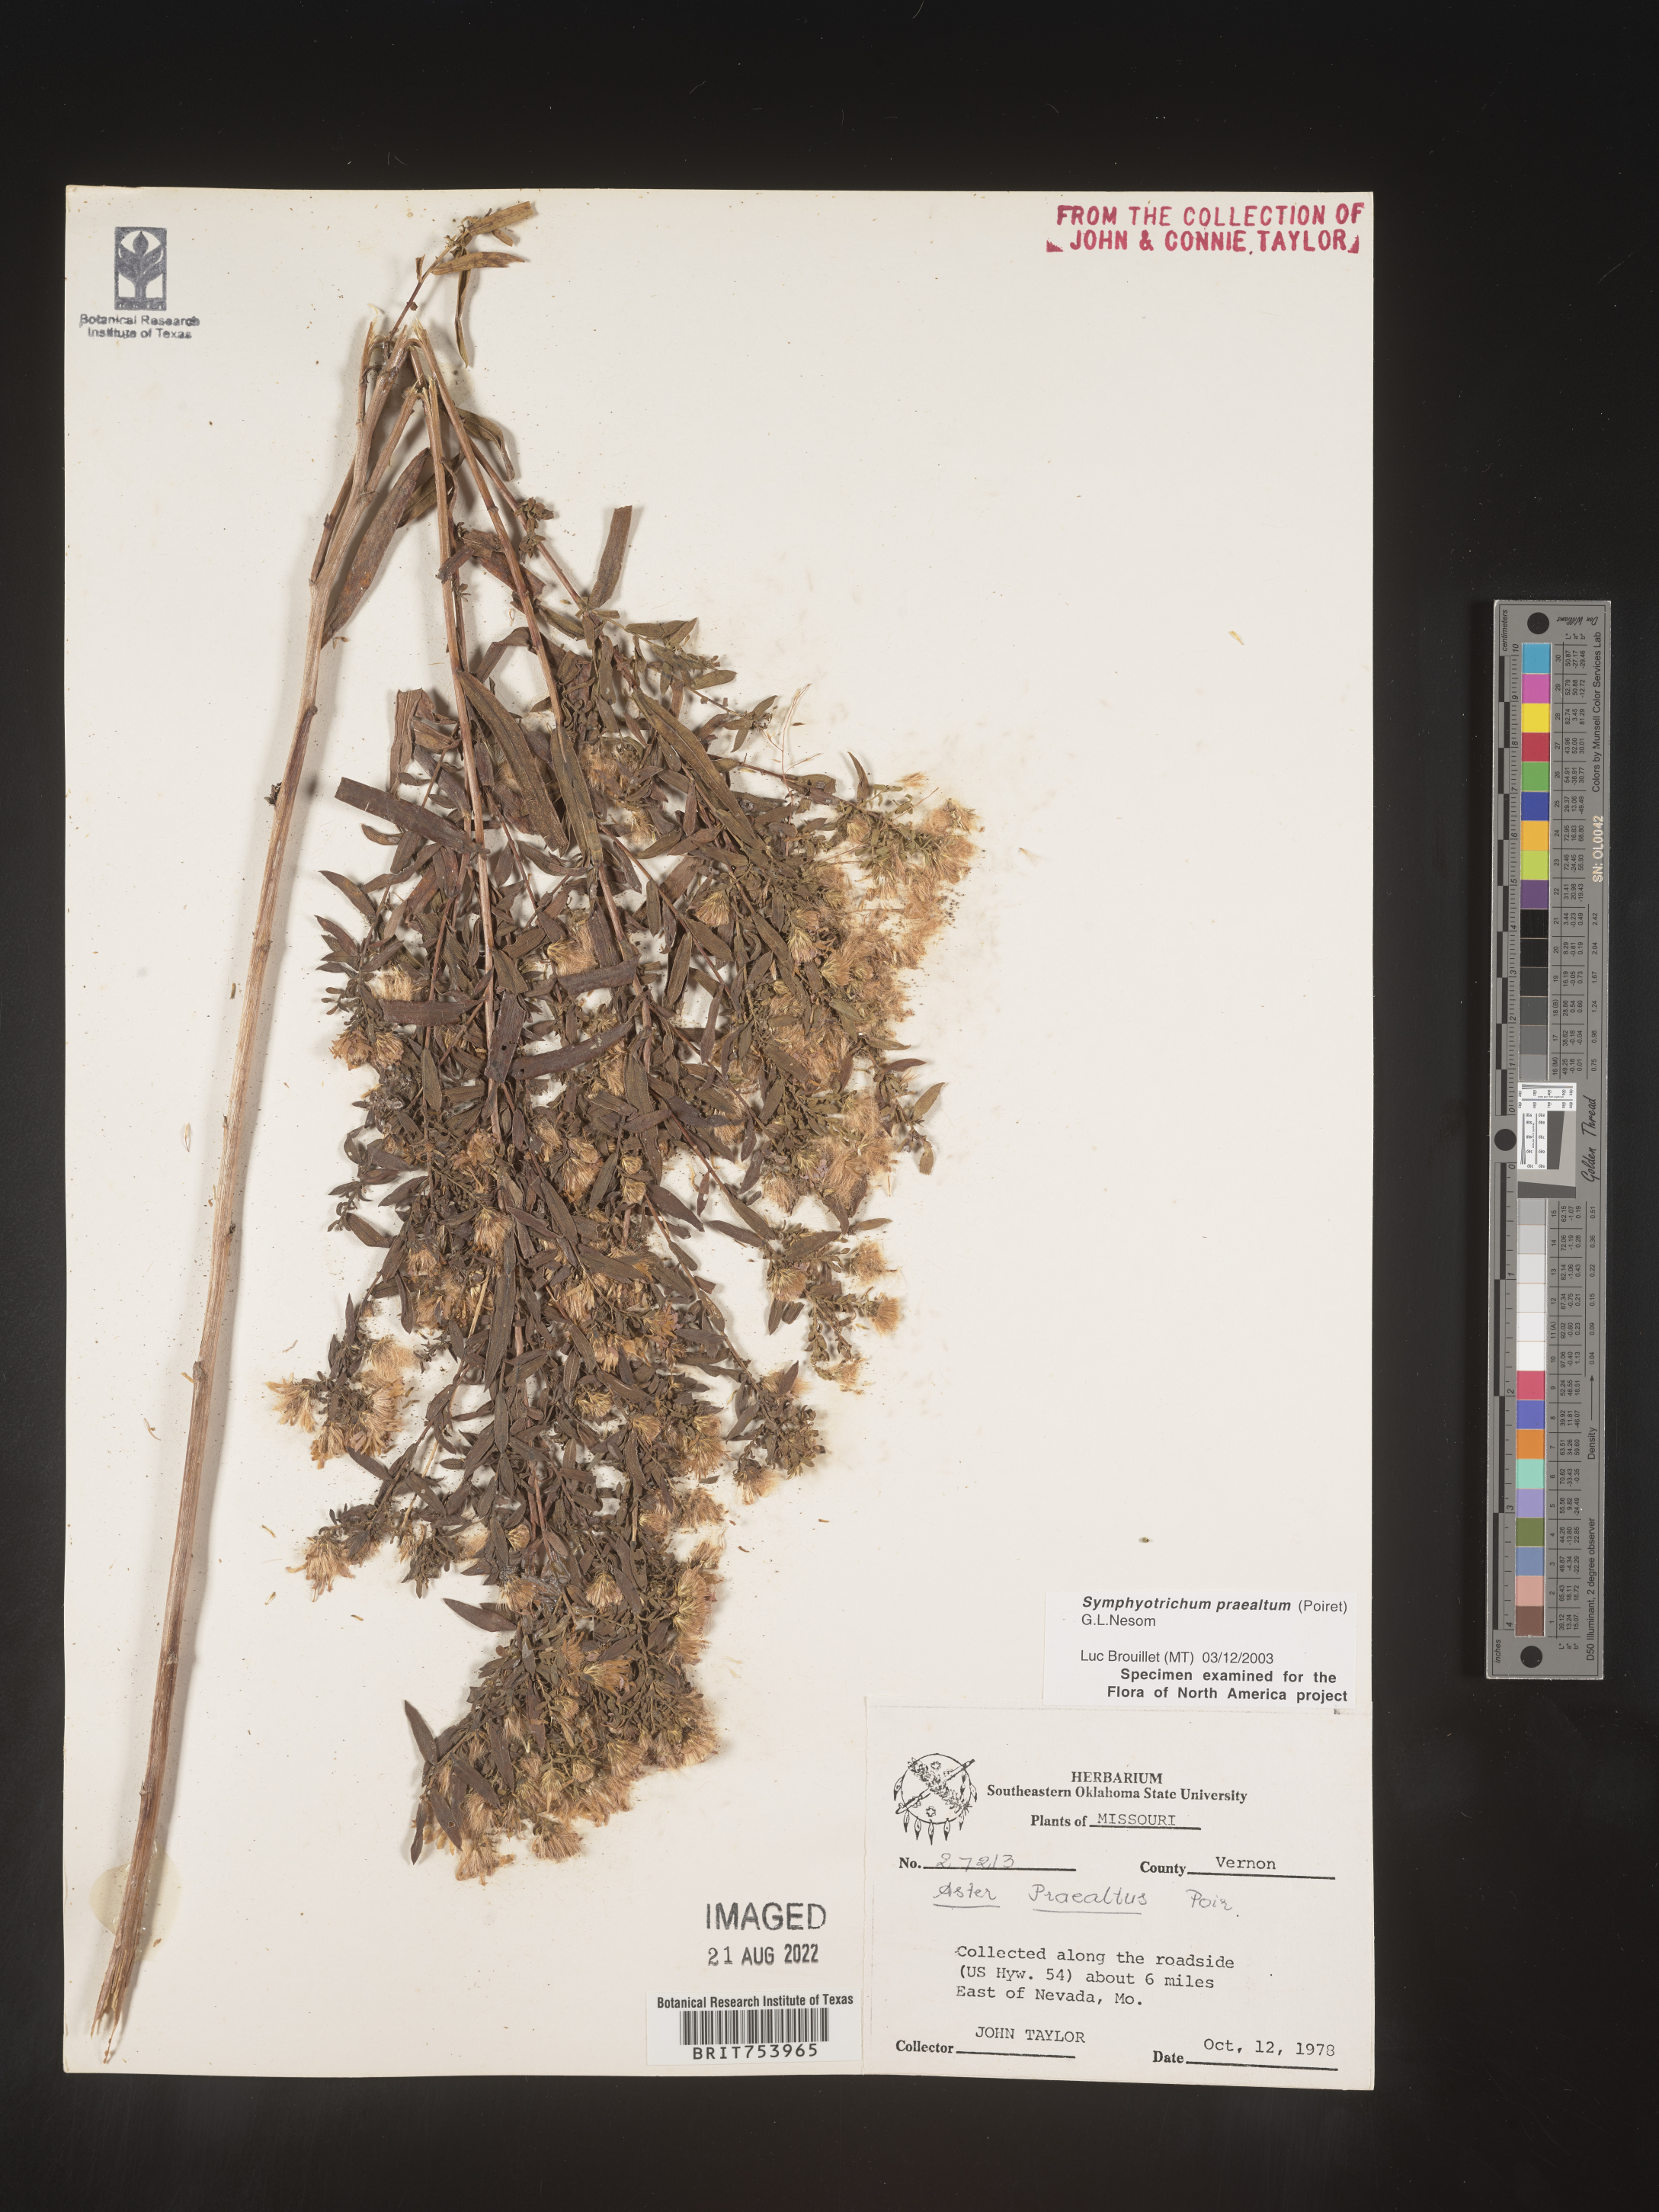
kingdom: Plantae
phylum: Tracheophyta
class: Magnoliopsida
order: Asterales
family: Asteraceae
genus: Symphyotrichum
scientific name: Symphyotrichum praealtum
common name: Willow aster
